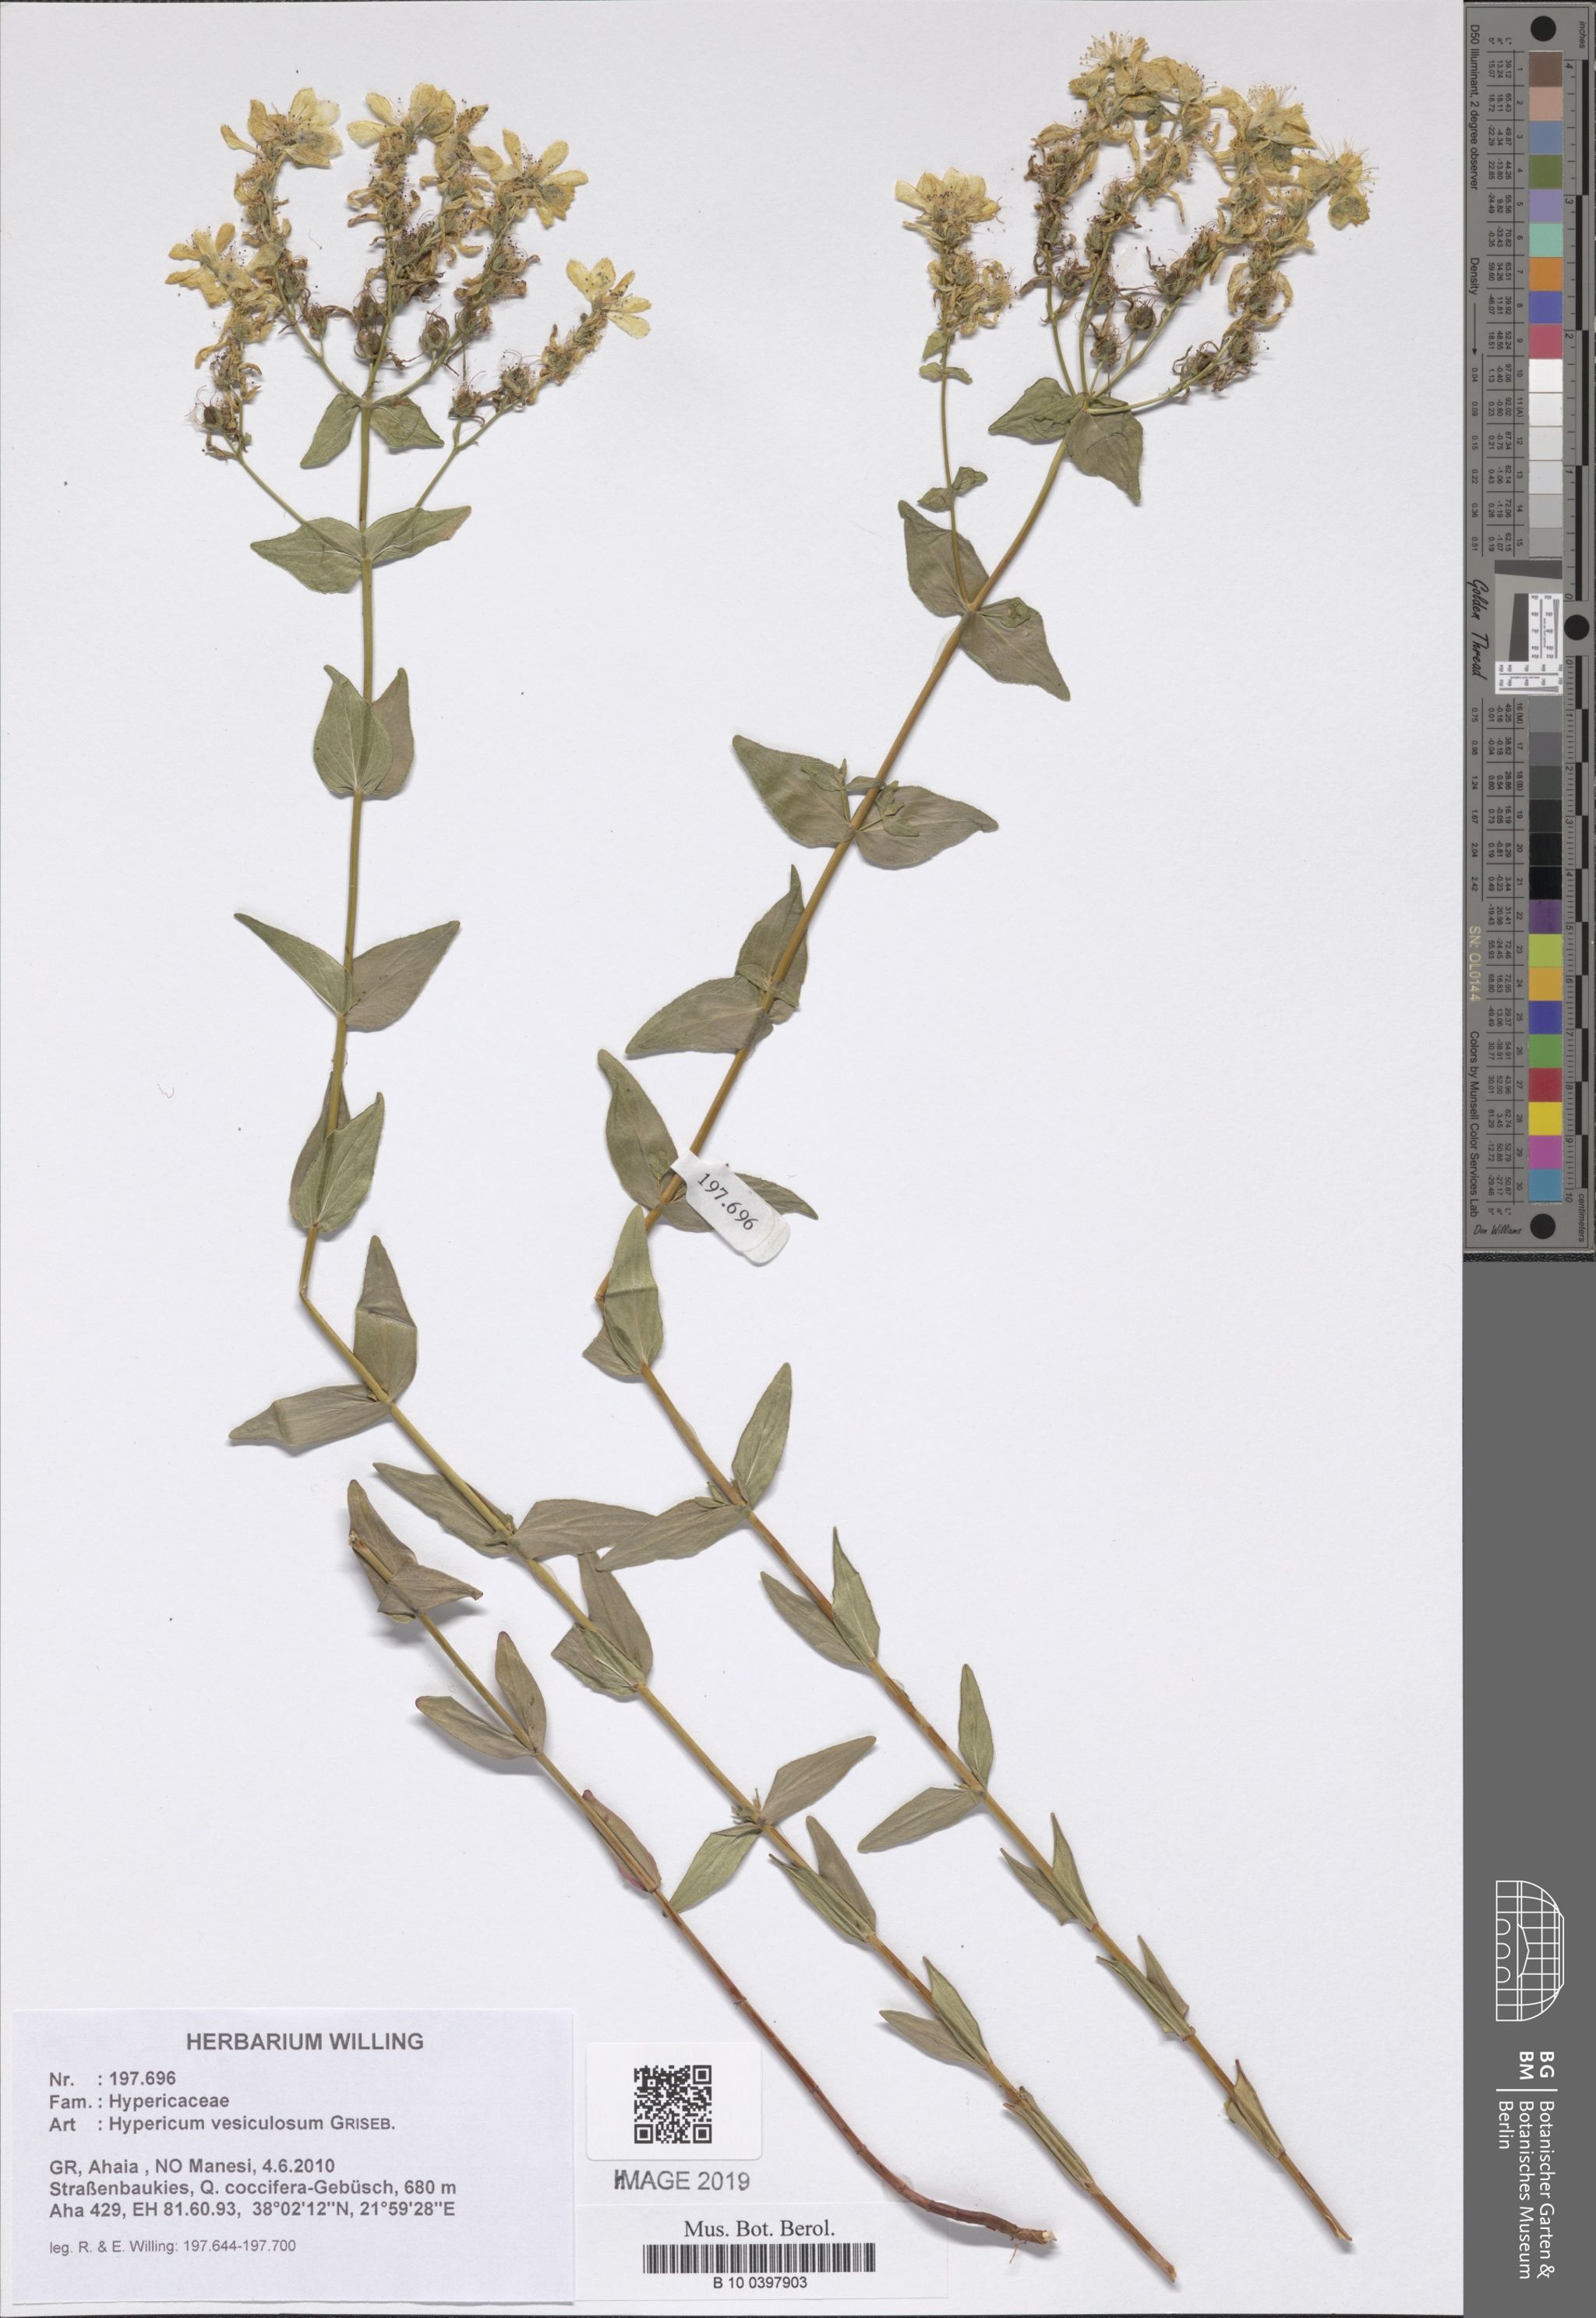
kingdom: Plantae
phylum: Tracheophyta
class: Magnoliopsida
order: Malpighiales
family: Hypericaceae
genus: Hypericum
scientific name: Hypericum vesiculosum
